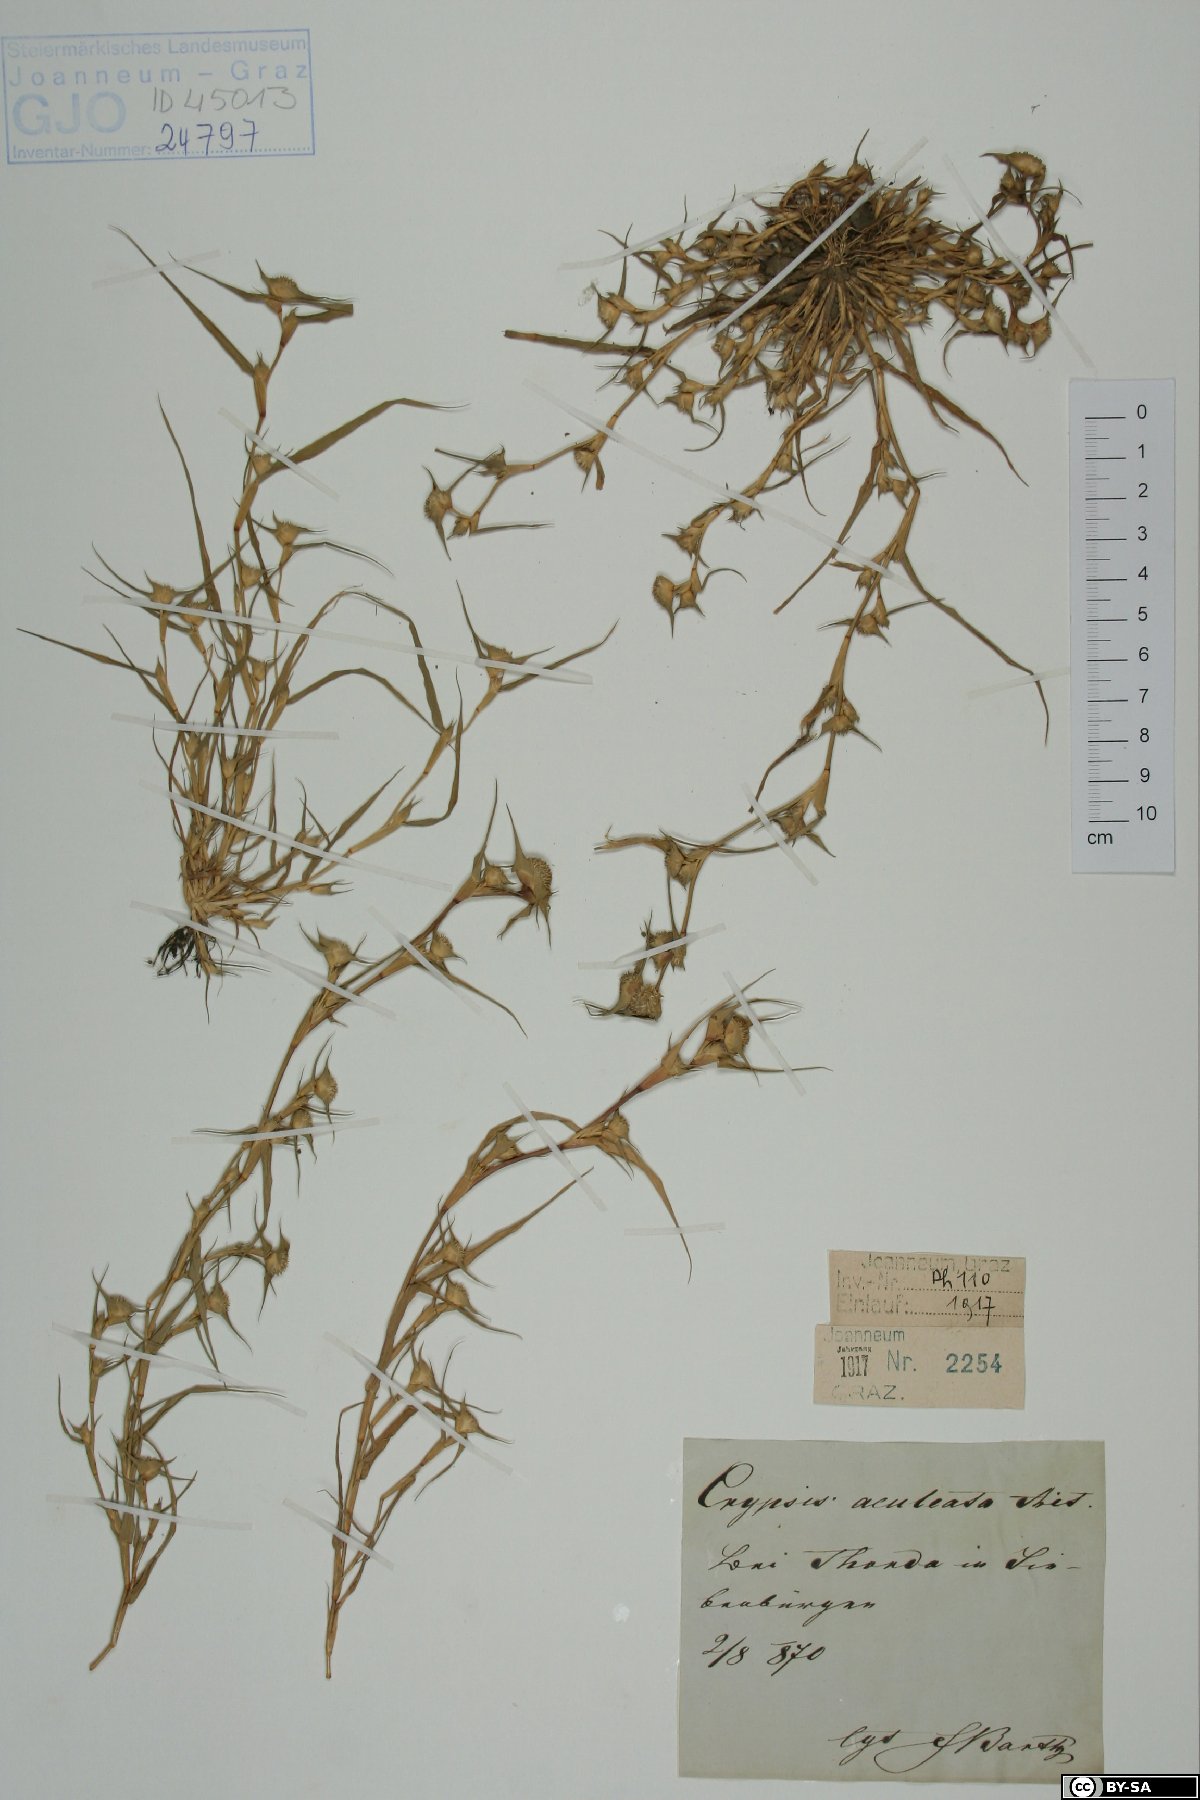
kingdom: Plantae
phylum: Tracheophyta
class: Liliopsida
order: Poales
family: Poaceae
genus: Sporobolus
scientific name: Sporobolus aculeatus
